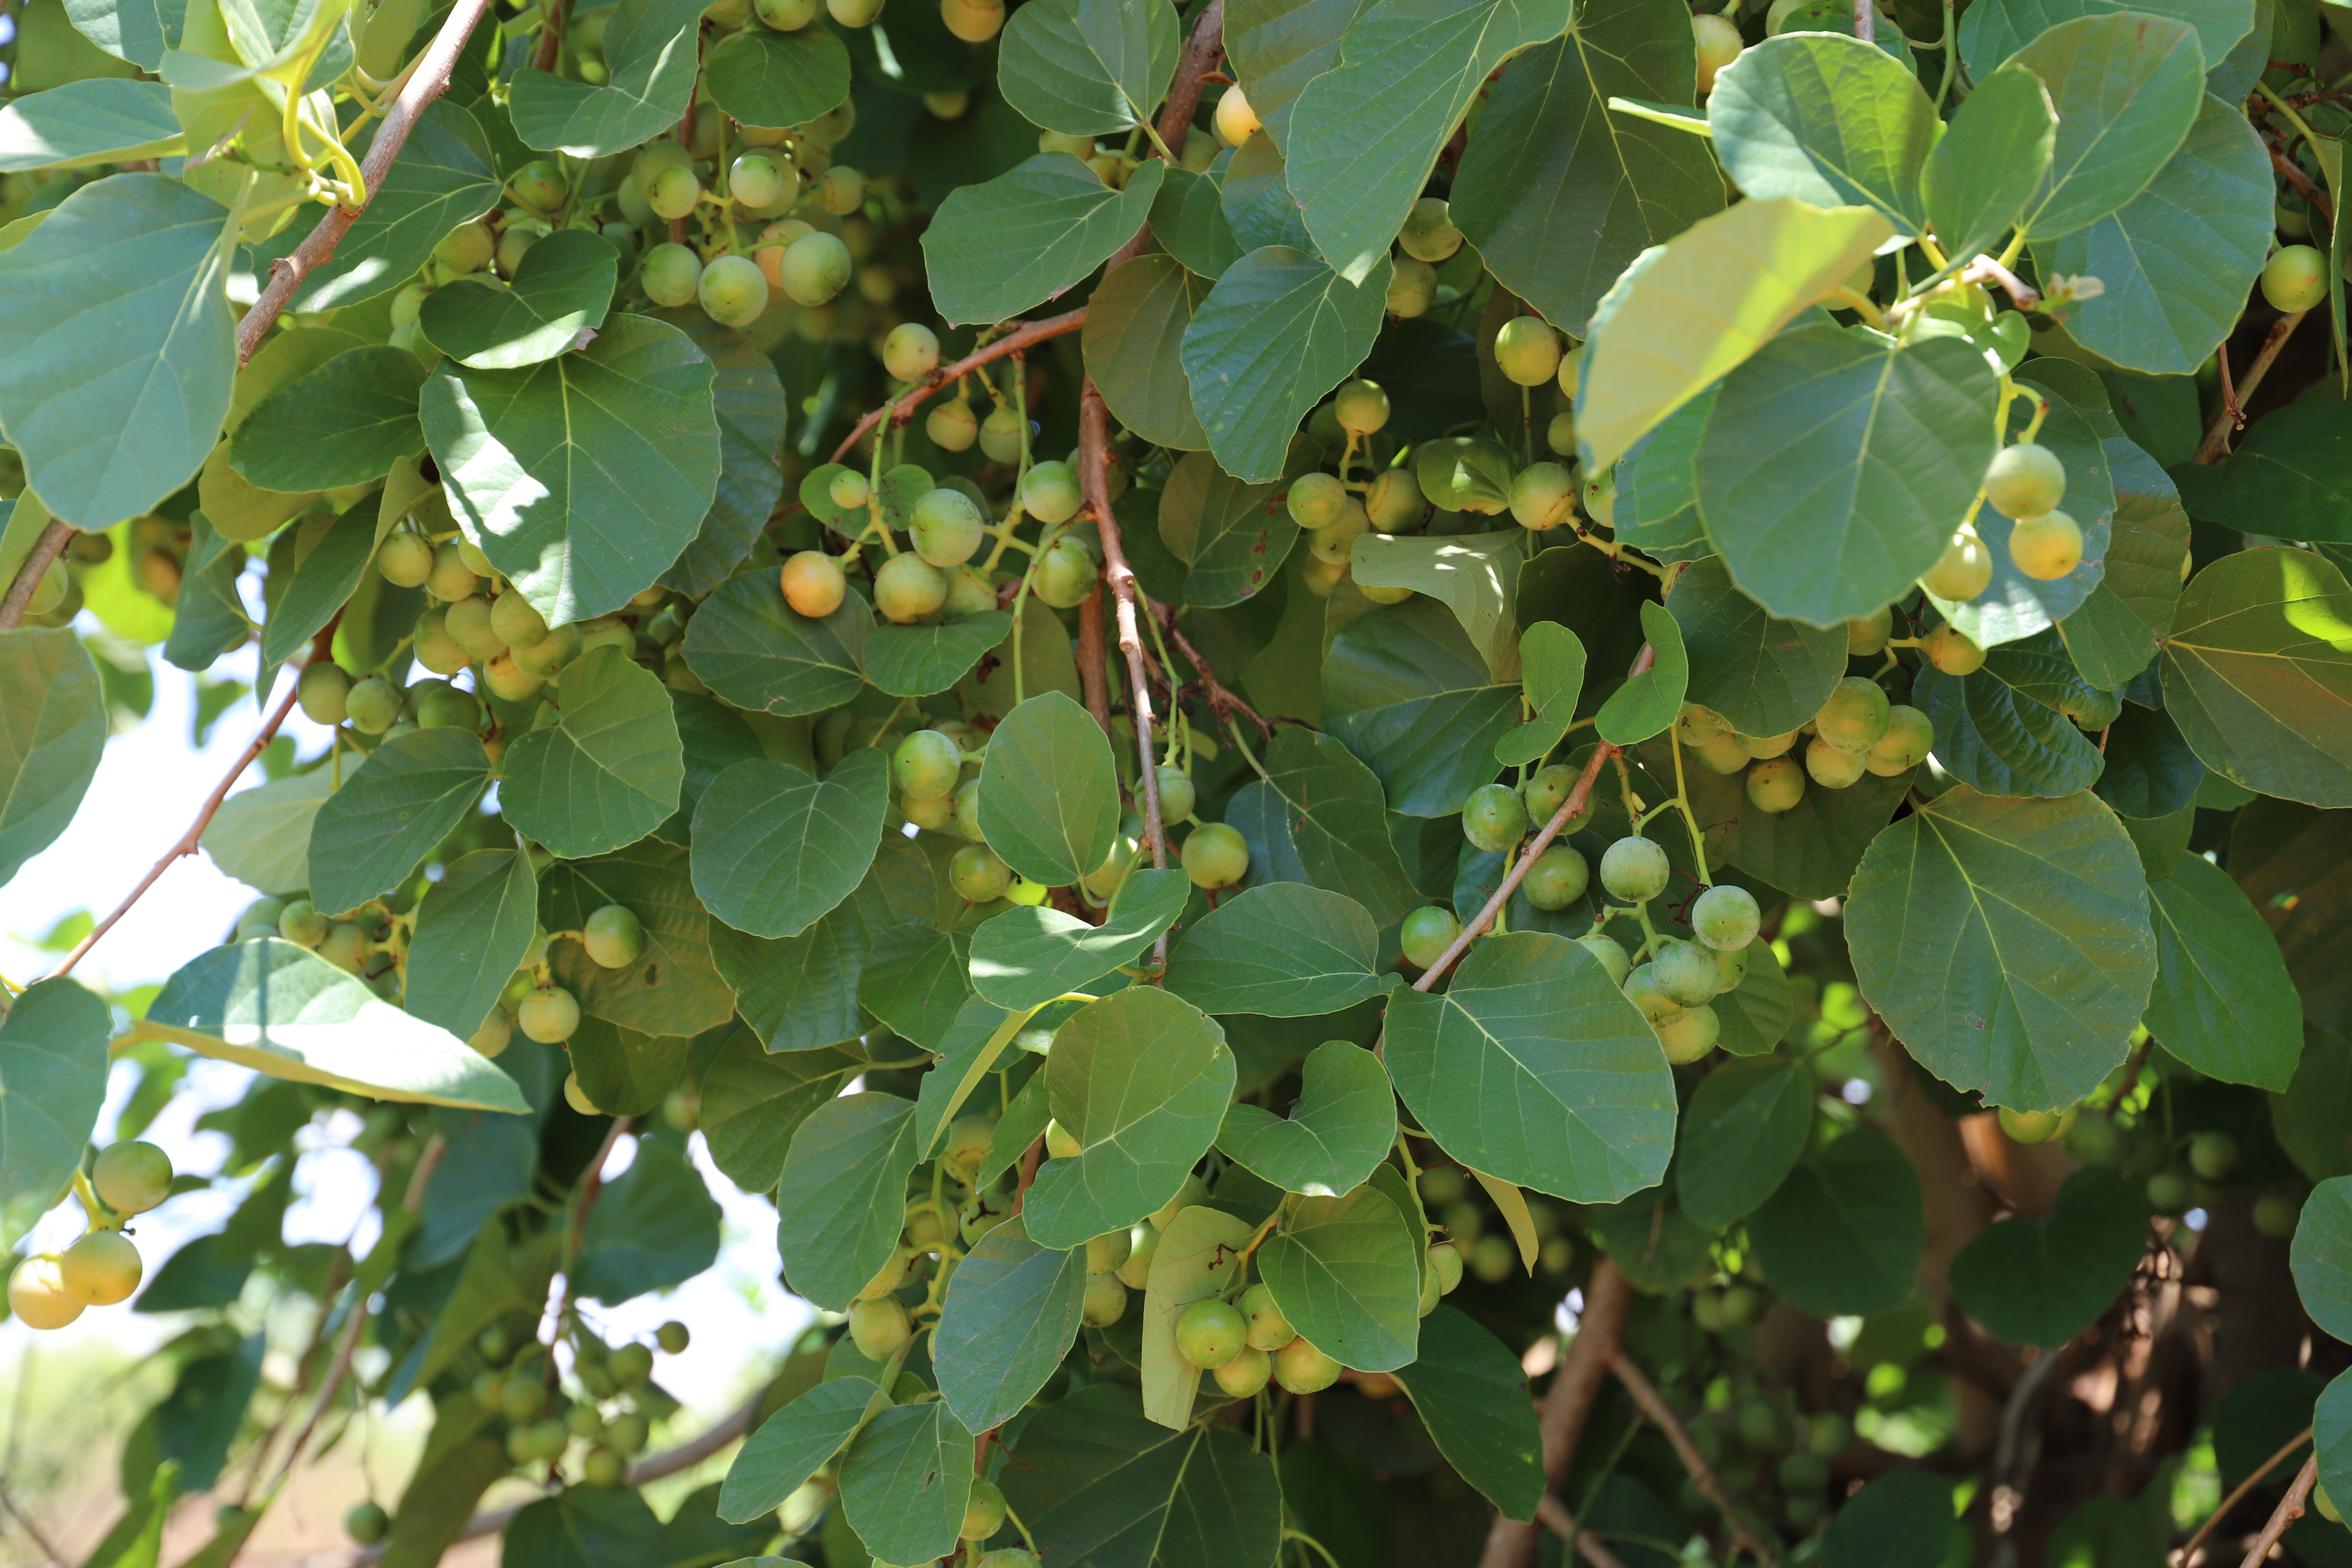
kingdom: Plantae
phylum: Tracheophyta
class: Magnoliopsida
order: Boraginales
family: Cordiaceae
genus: Cordia
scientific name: Cordia dichotoma
